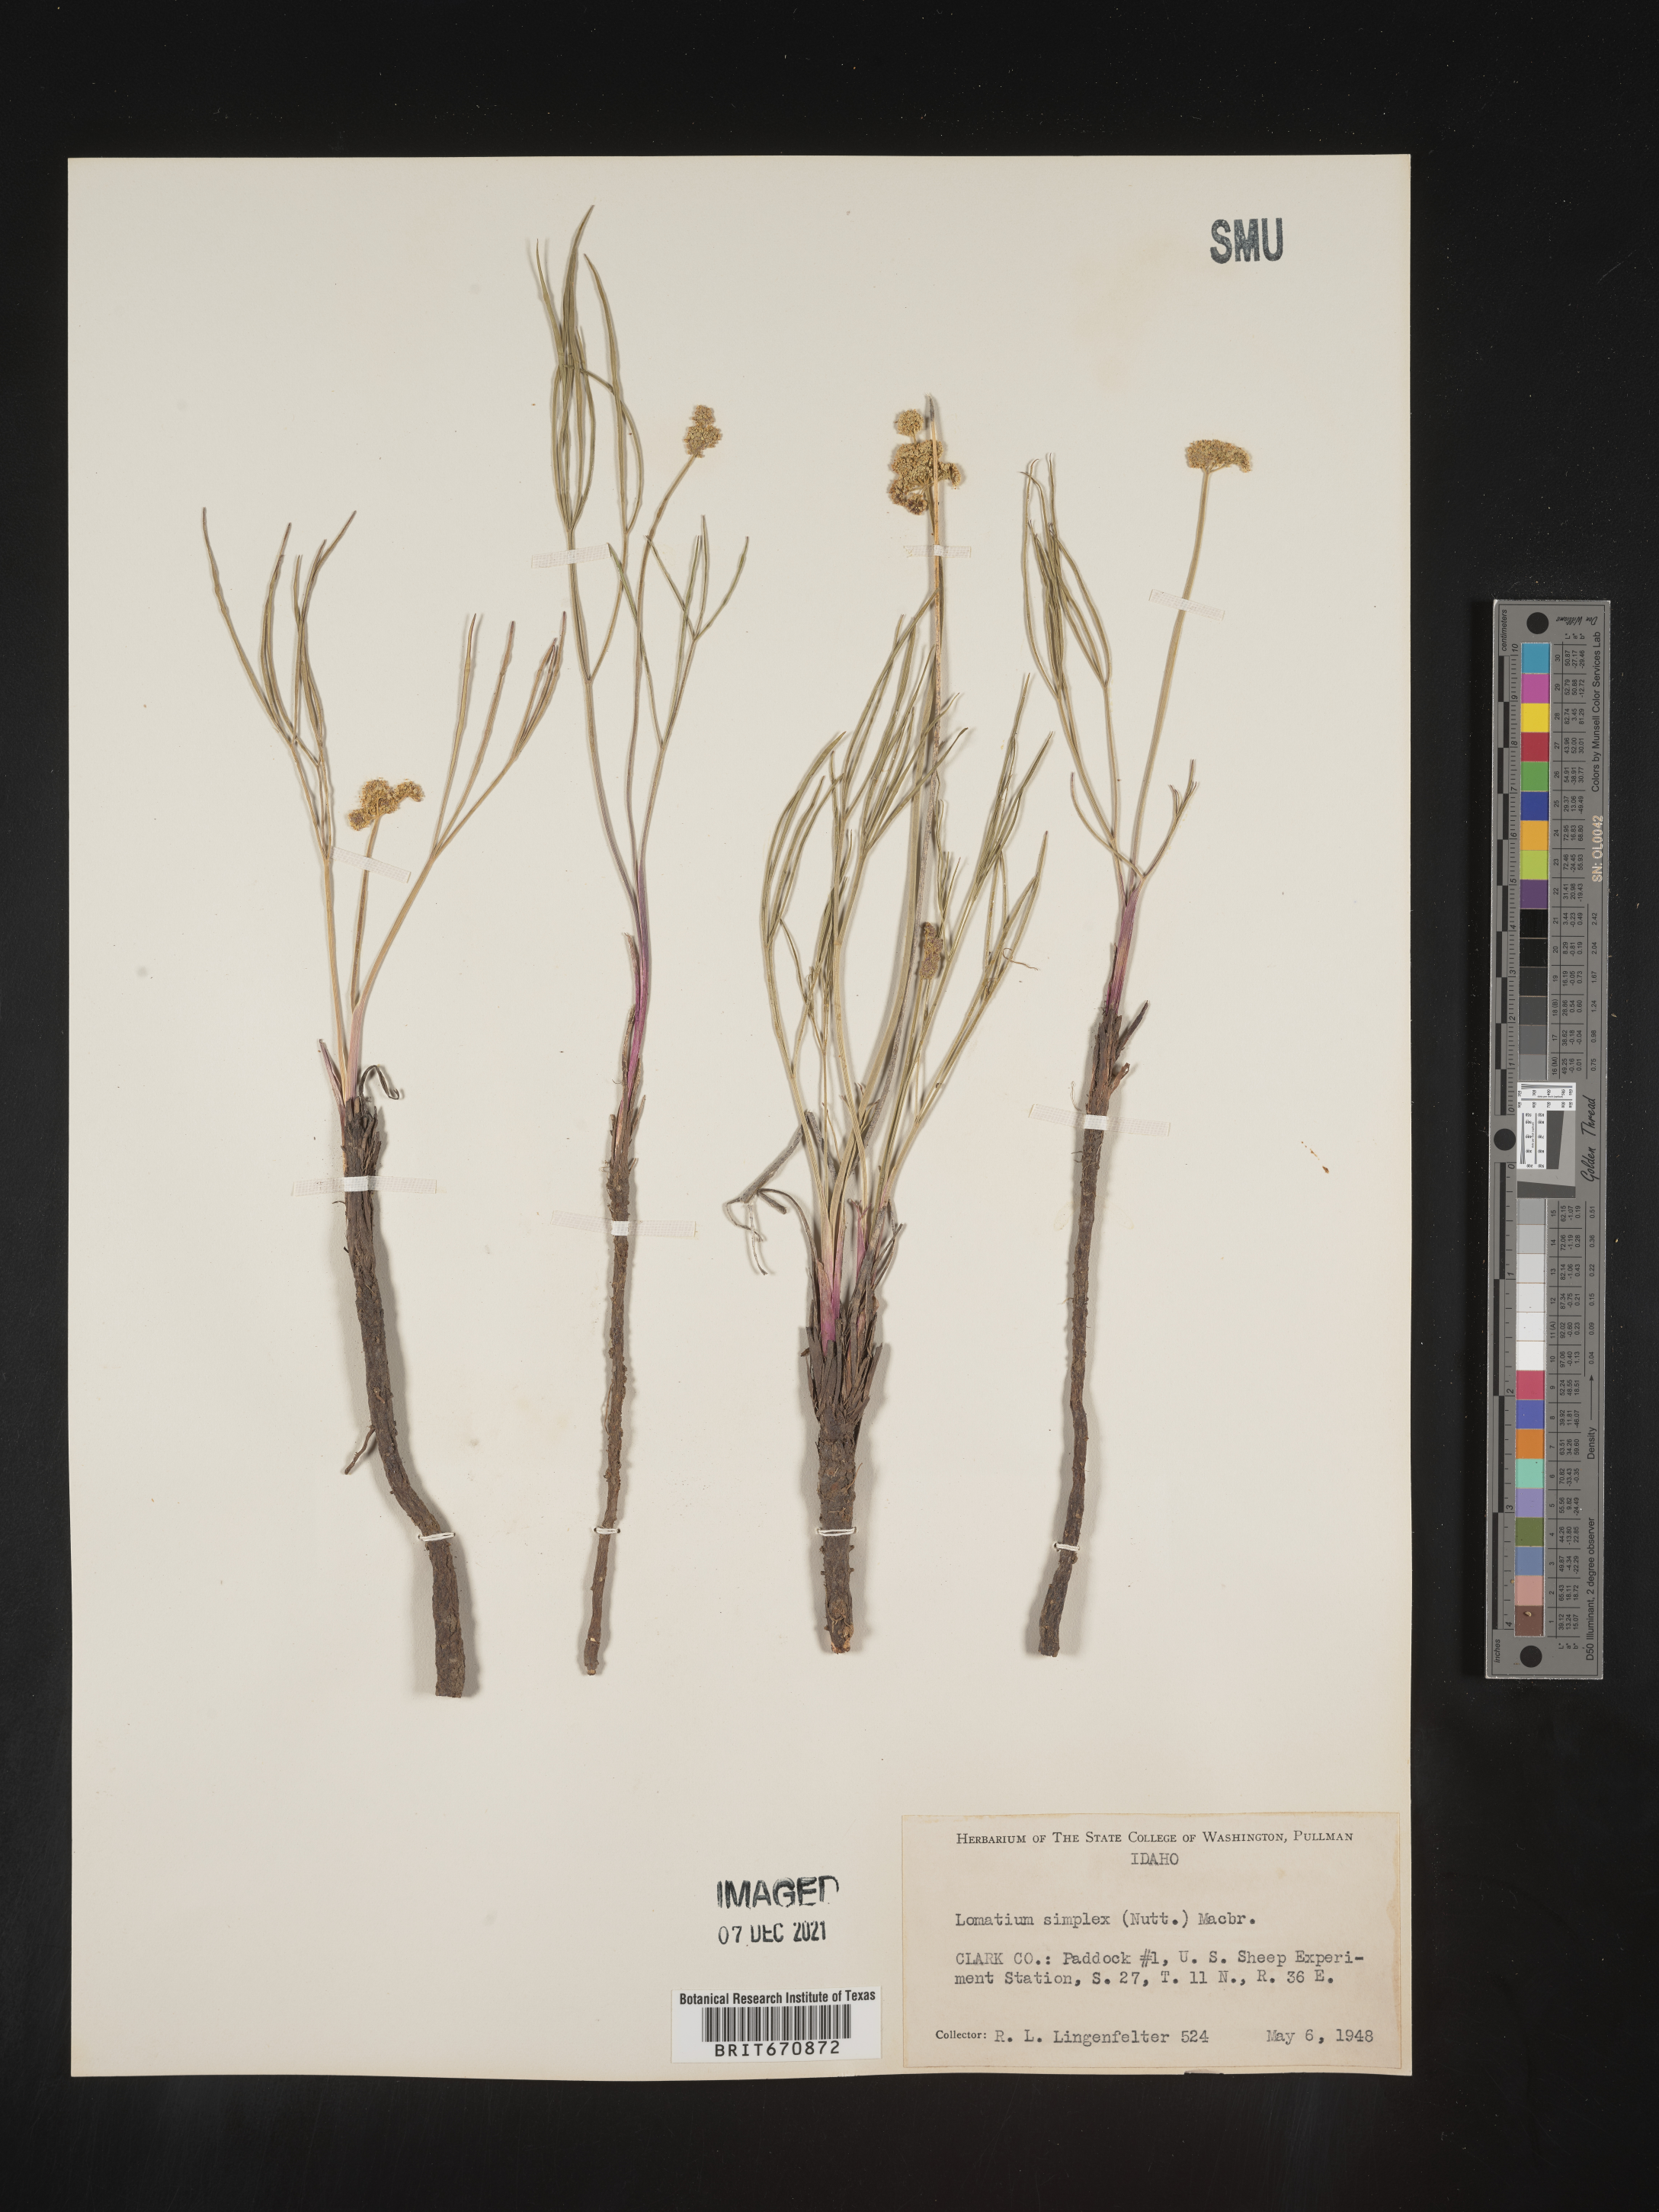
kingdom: Plantae
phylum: Tracheophyta
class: Magnoliopsida
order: Apiales
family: Apiaceae
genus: Lomatium
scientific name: Lomatium simplex
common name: Great basin biscuitroot
